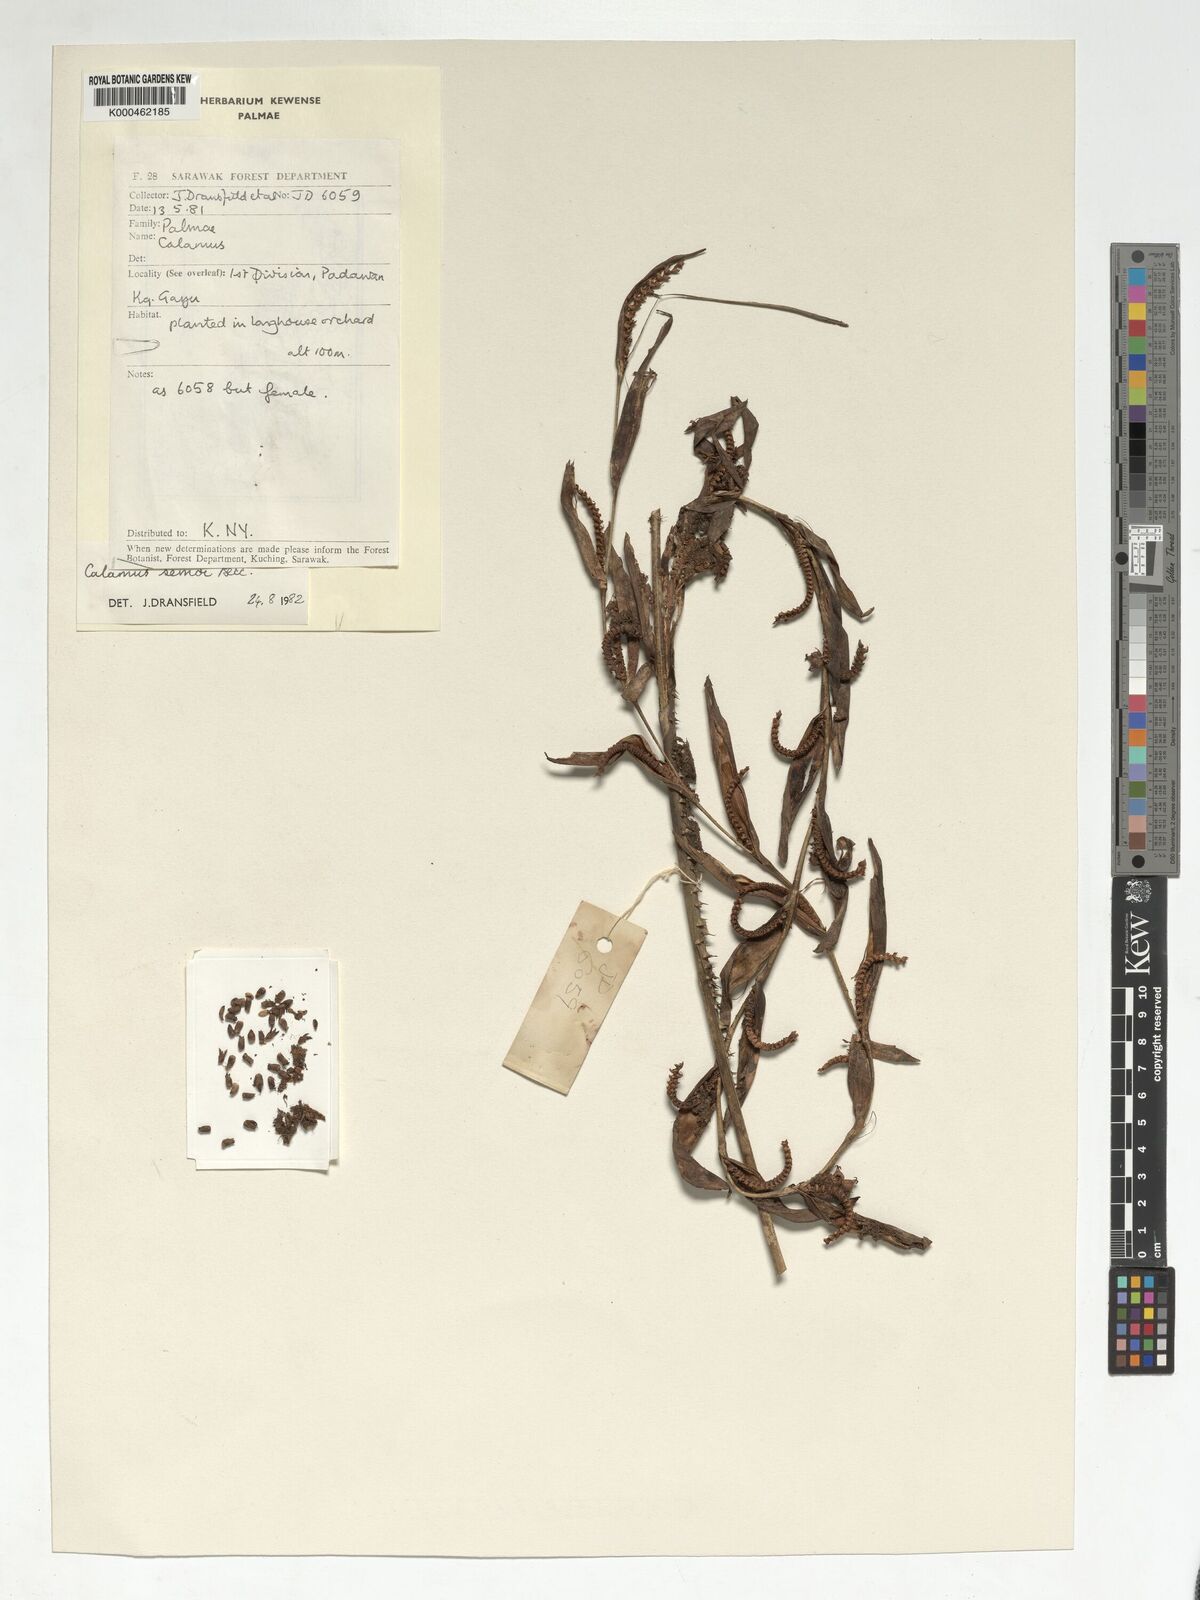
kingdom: Plantae
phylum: Tracheophyta
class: Liliopsida
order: Arecales
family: Arecaceae
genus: Calamus
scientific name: Calamus erioacanthus
